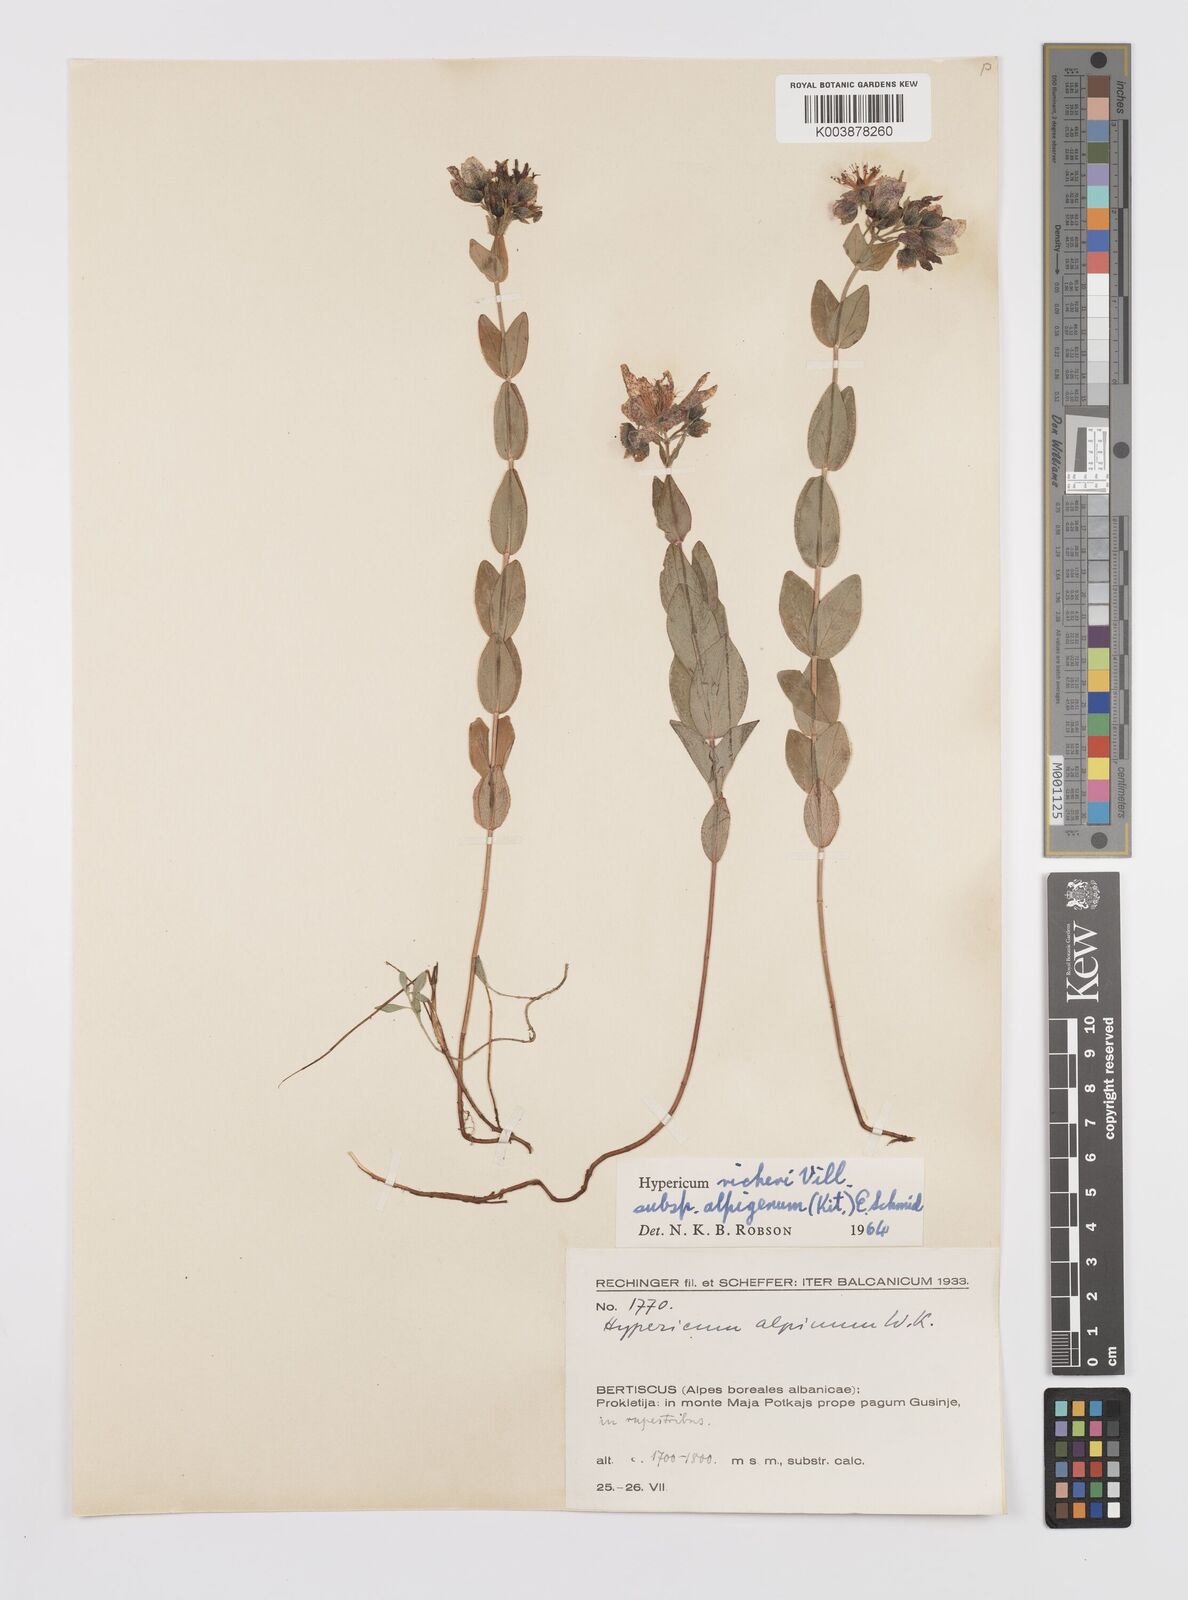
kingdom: Plantae
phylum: Tracheophyta
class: Magnoliopsida
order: Malpighiales
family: Hypericaceae
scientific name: Hypericaceae
